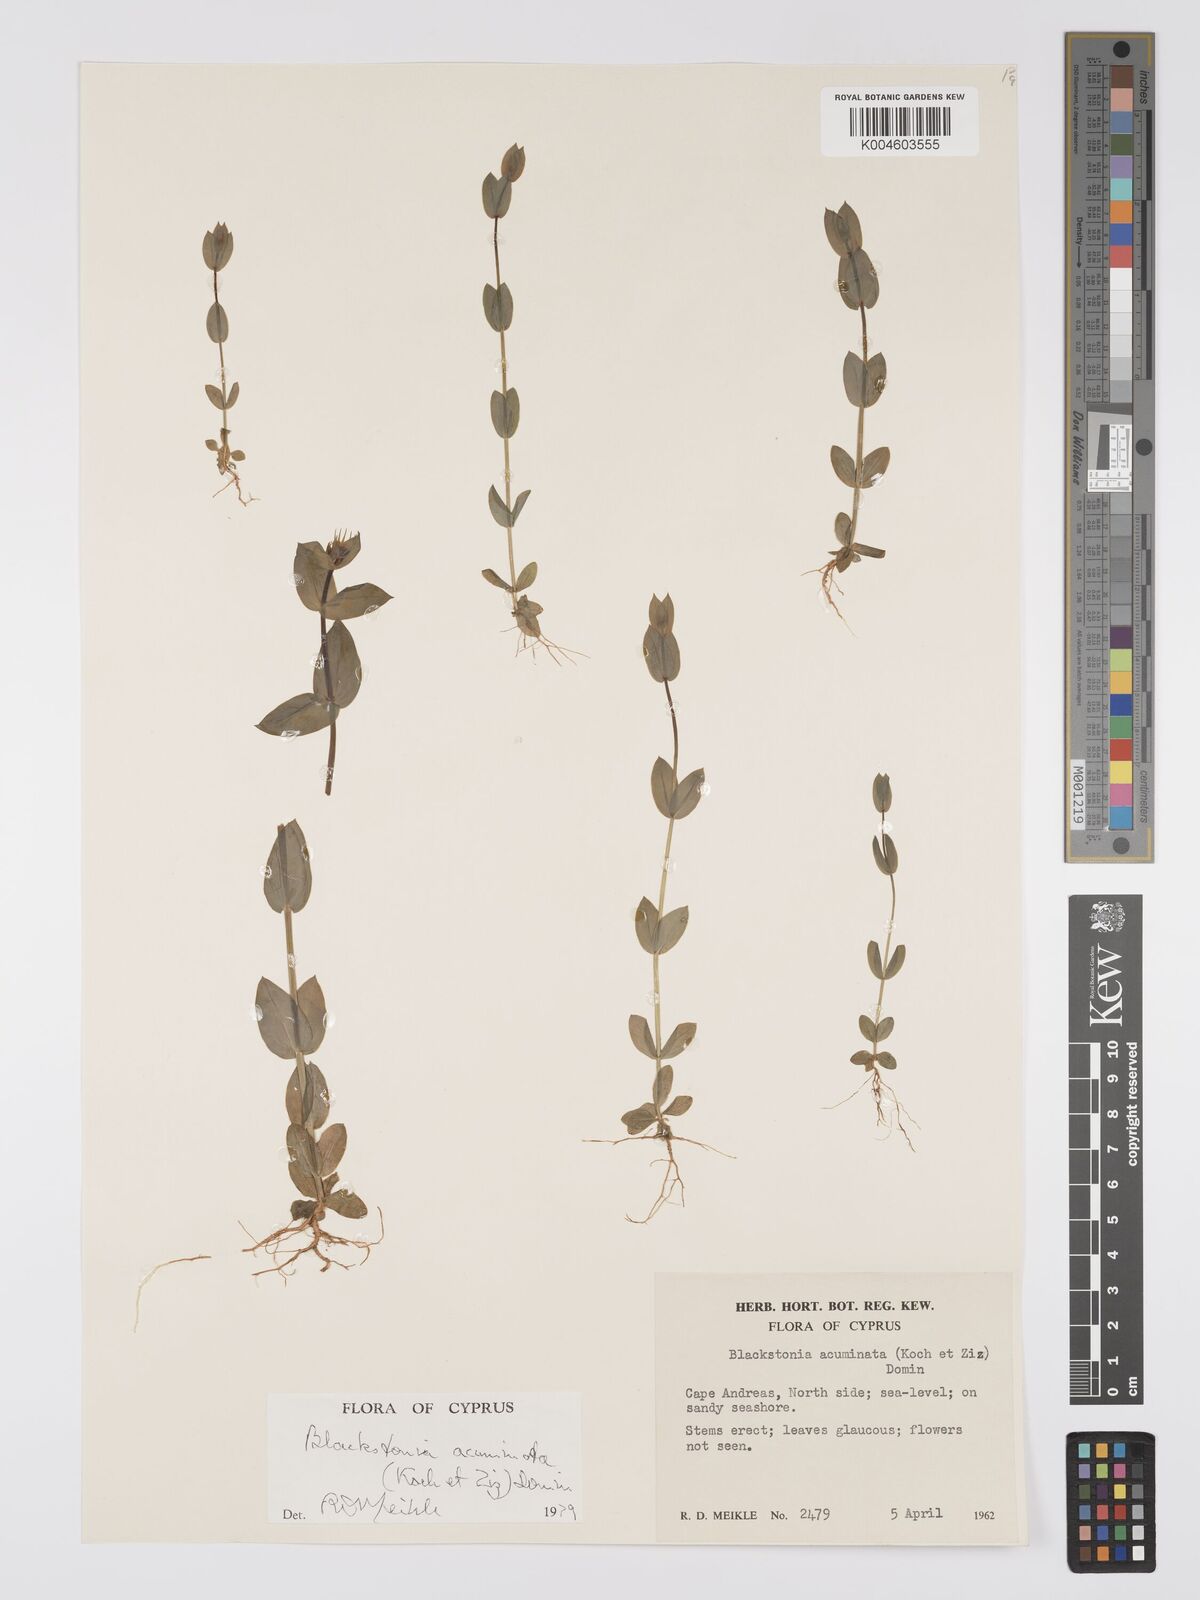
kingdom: Plantae
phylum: Tracheophyta
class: Magnoliopsida
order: Gentianales
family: Gentianaceae
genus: Blackstonia
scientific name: Blackstonia acuminata
